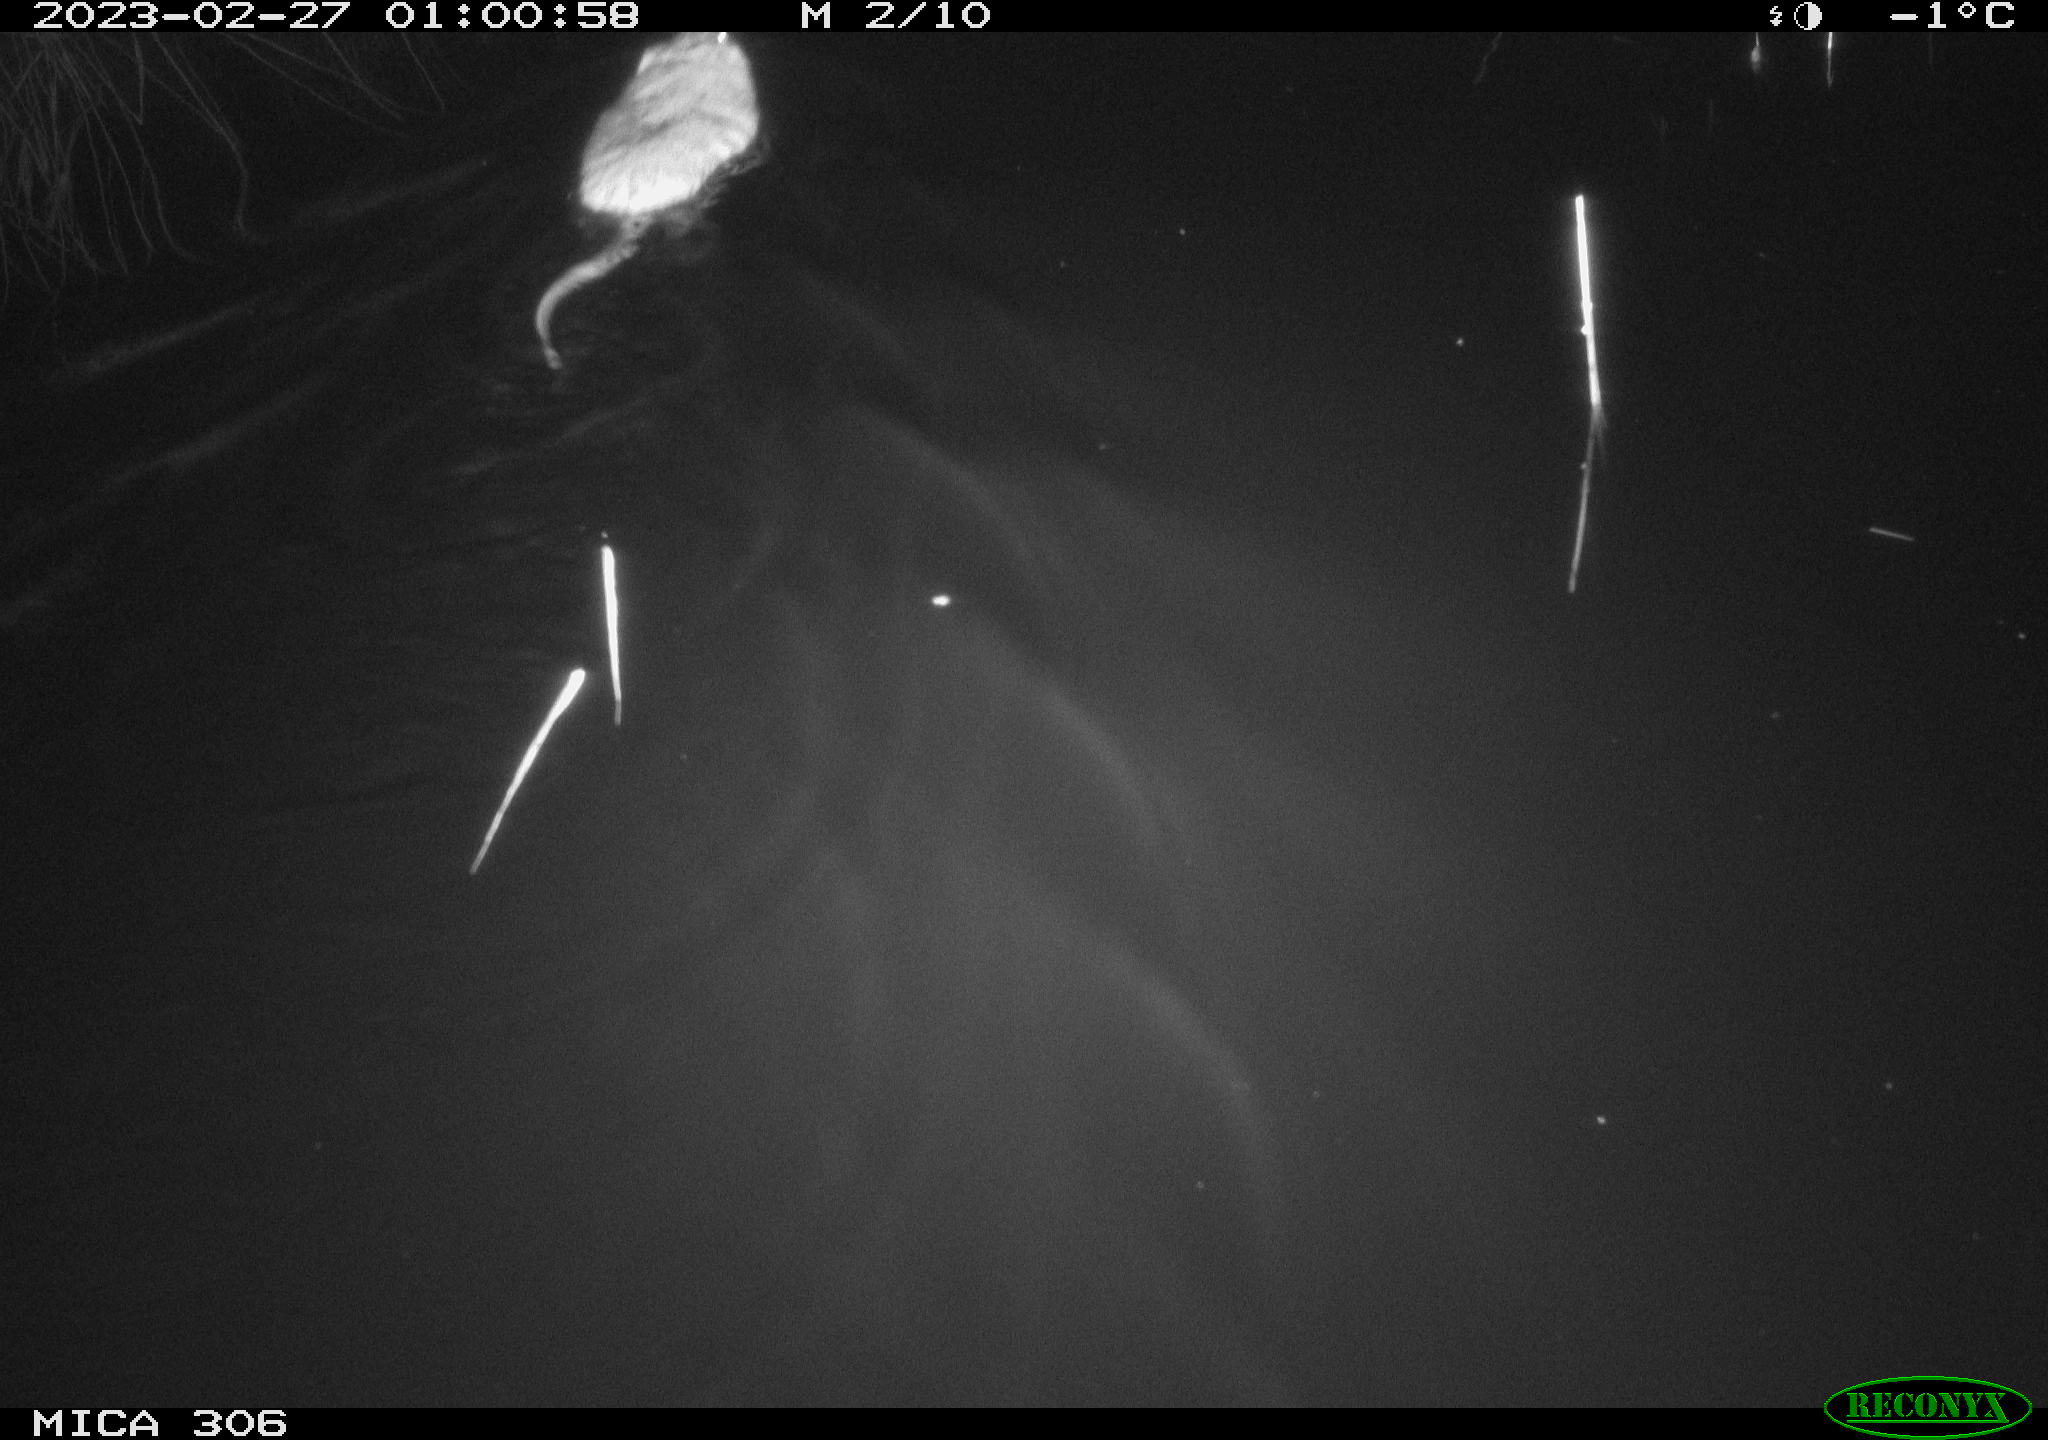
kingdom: Animalia
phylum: Chordata
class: Mammalia
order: Rodentia
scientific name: Rodentia
